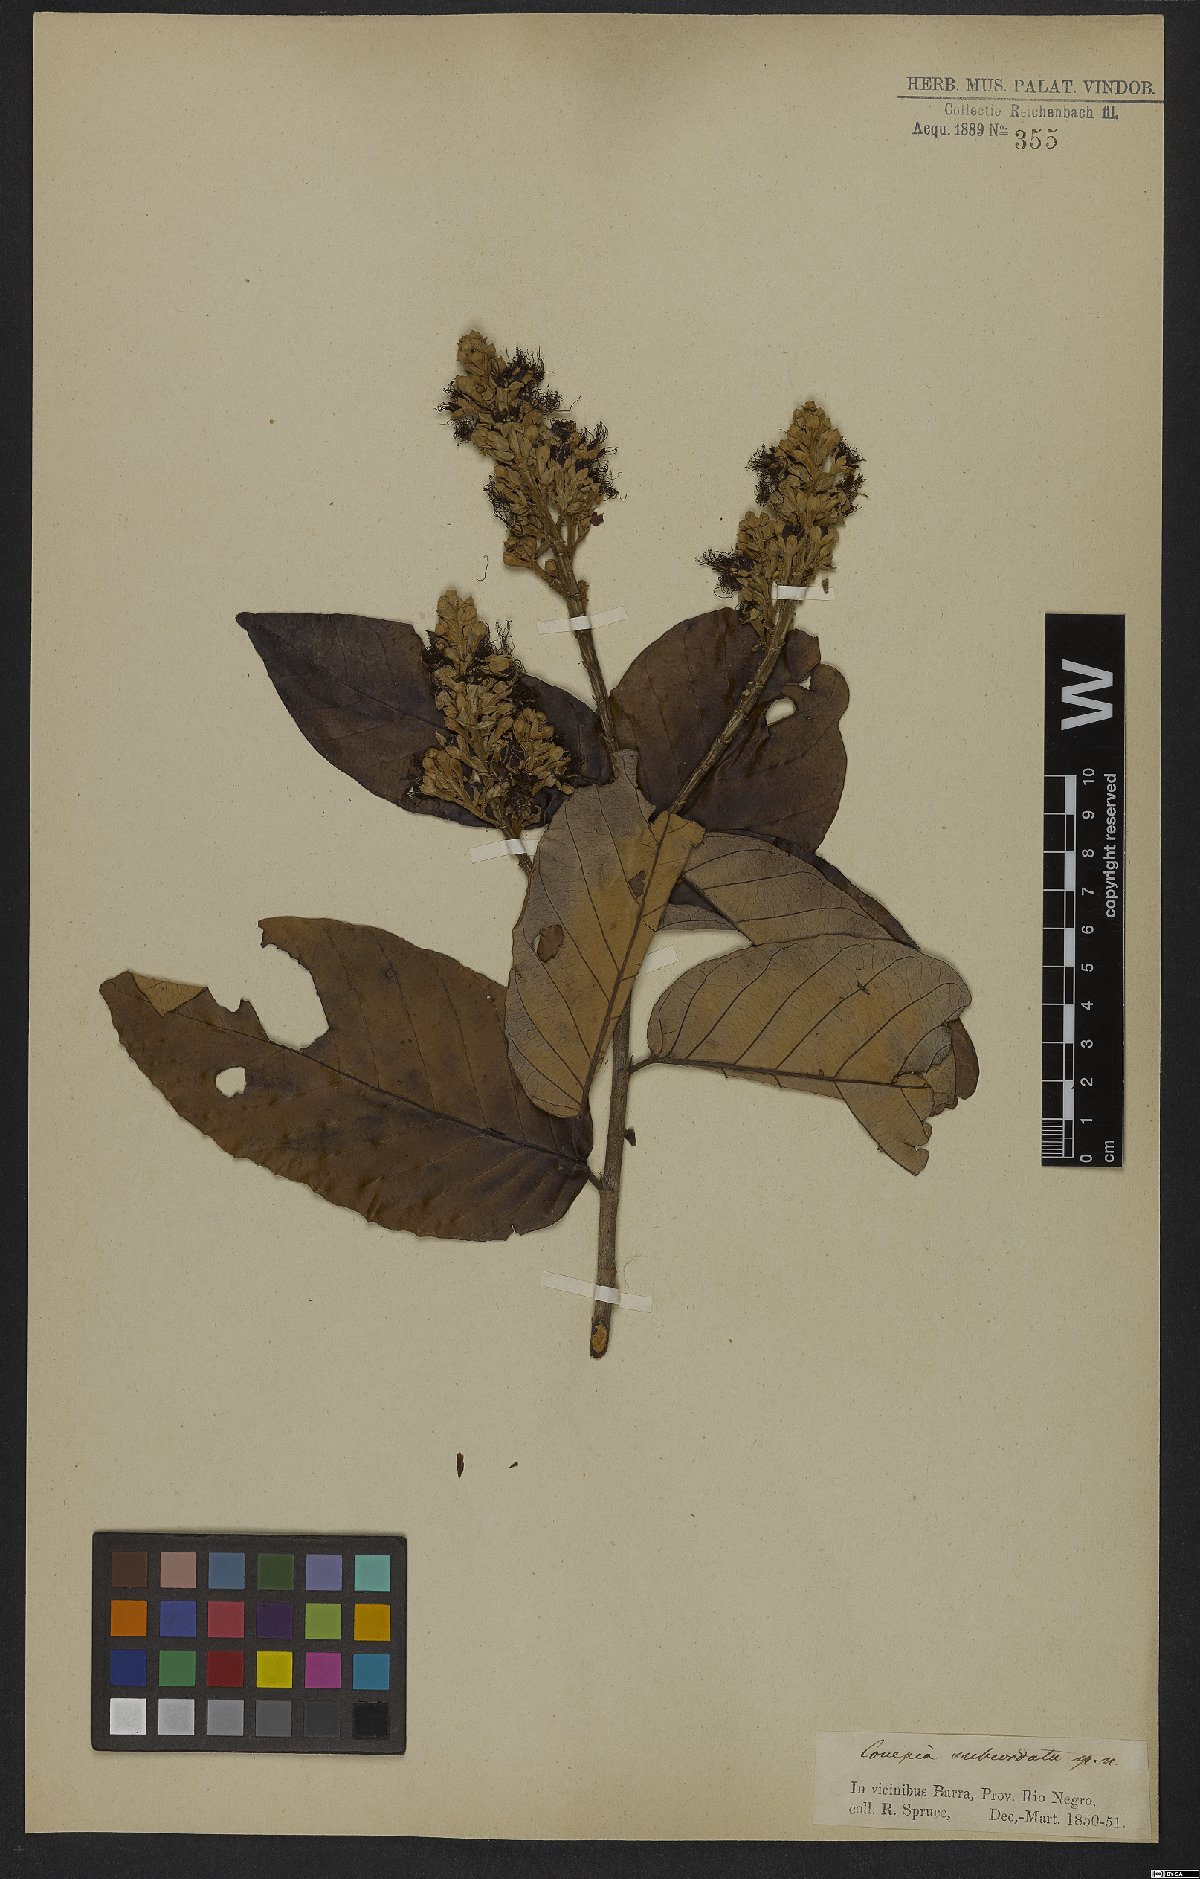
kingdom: Plantae
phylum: Tracheophyta
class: Magnoliopsida
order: Malpighiales
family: Chrysobalanaceae
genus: Couepia
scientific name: Couepia subcordata
